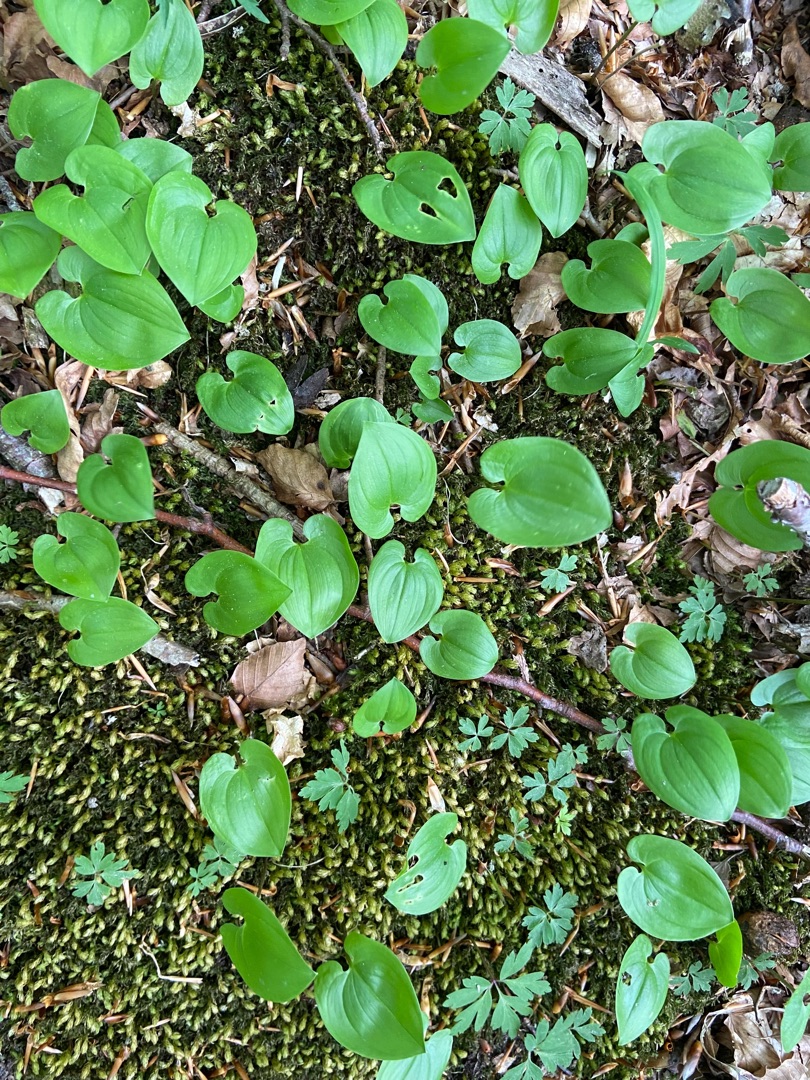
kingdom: Plantae
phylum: Tracheophyta
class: Liliopsida
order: Asparagales
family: Asparagaceae
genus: Maianthemum
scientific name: Maianthemum bifolium
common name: Majblomst
